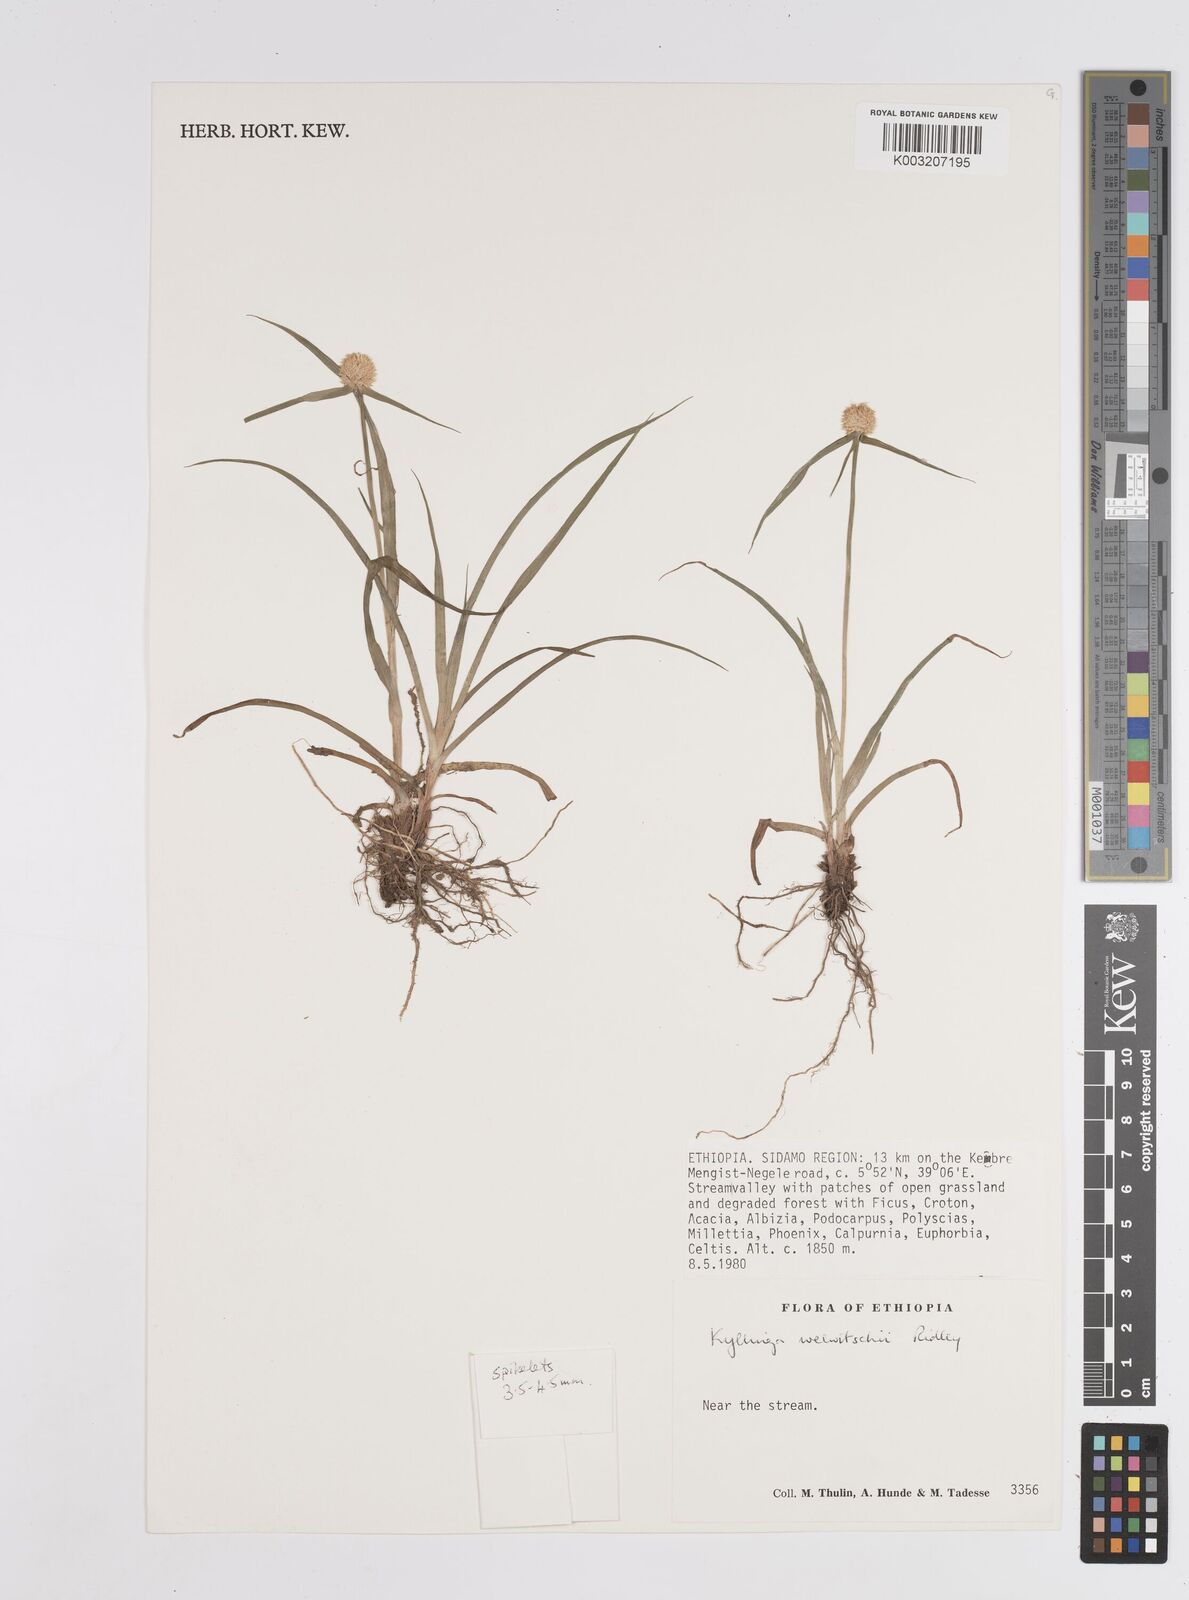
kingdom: Plantae
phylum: Tracheophyta
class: Liliopsida
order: Poales
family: Cyperaceae
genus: Cyperus
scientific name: Cyperus
